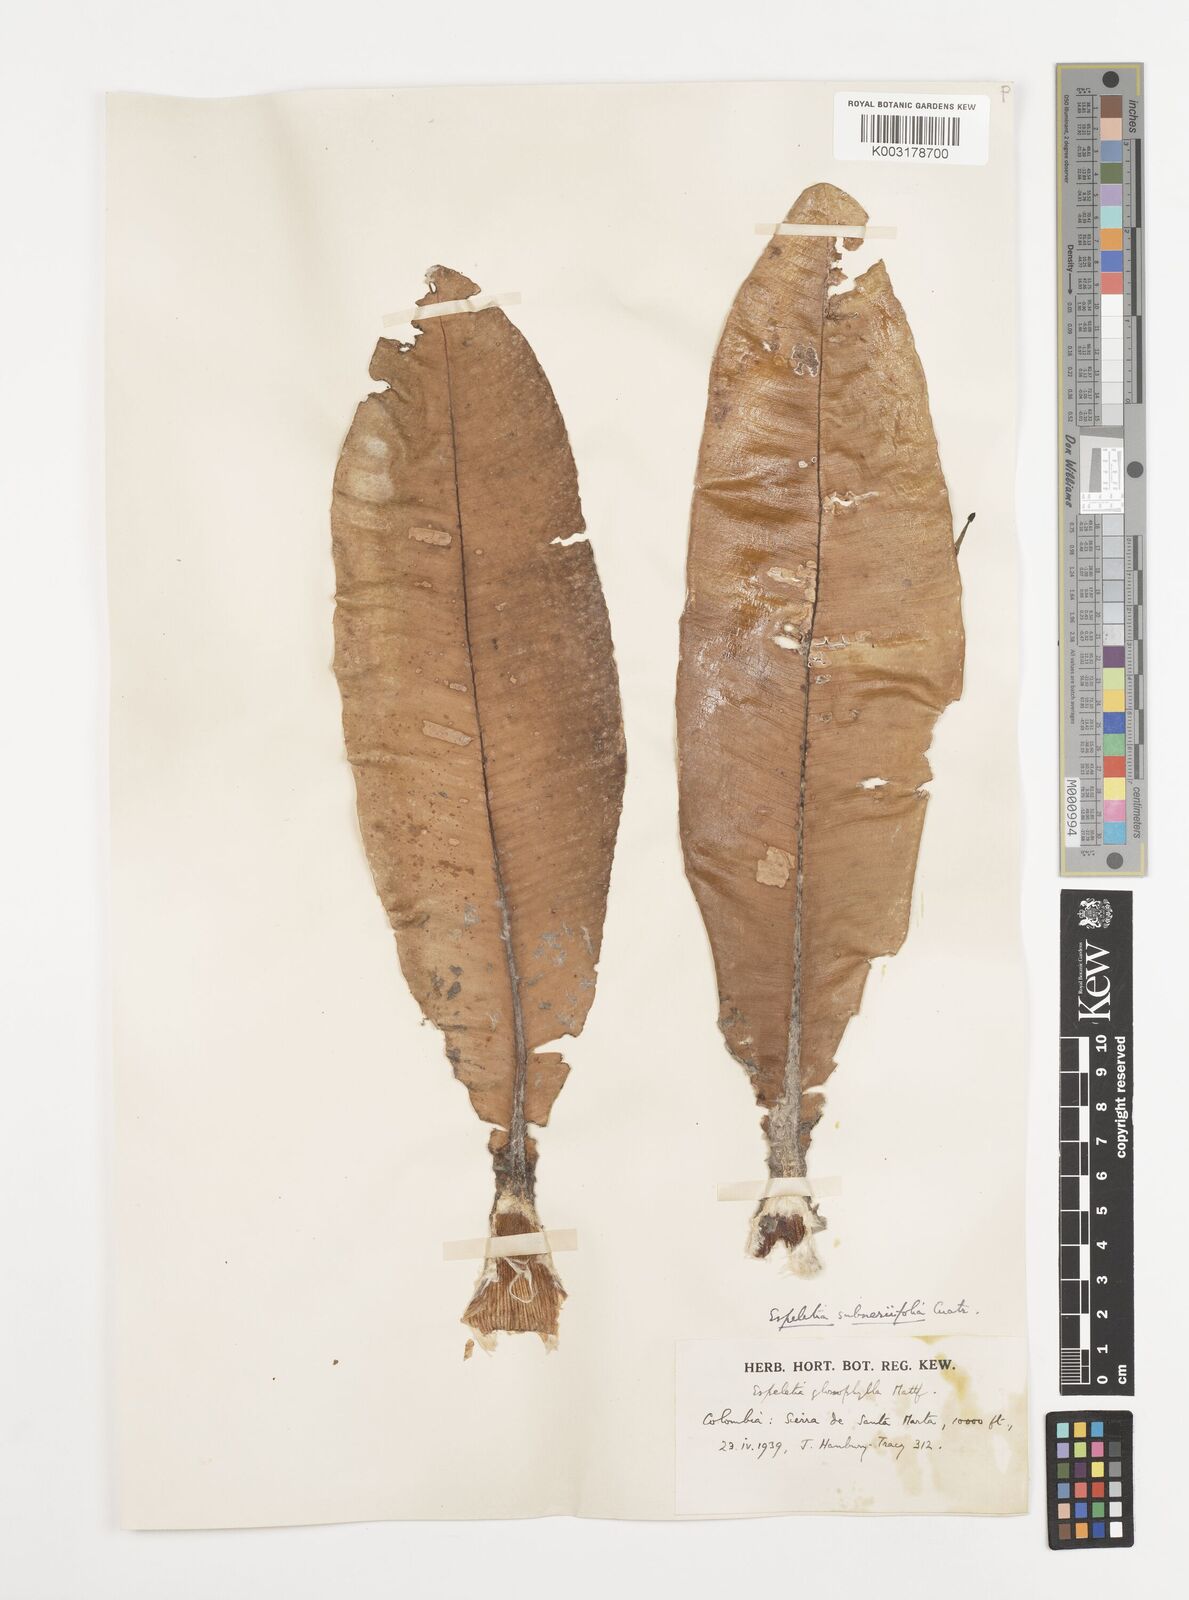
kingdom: Plantae
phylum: Tracheophyta
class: Magnoliopsida
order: Asterales
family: Asteraceae
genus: Espeletia
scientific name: Espeletia occulta
